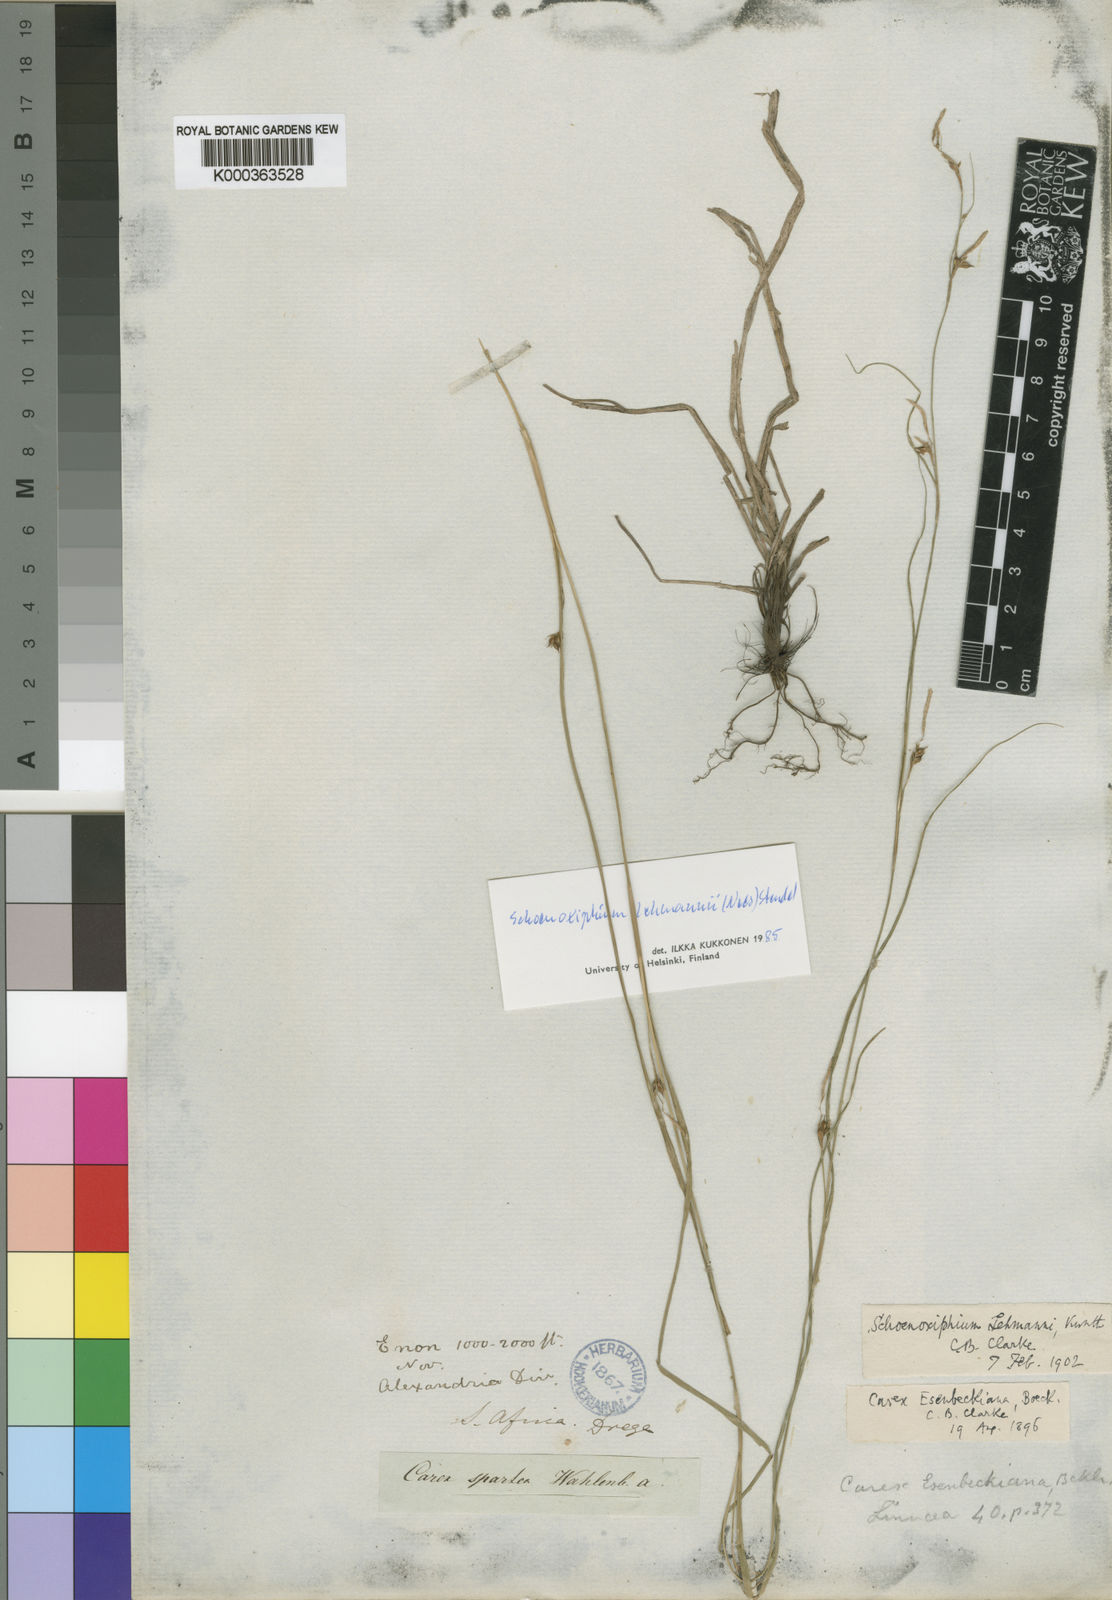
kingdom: Plantae
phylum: Tracheophyta
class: Liliopsida
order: Poales
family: Cyperaceae
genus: Carex
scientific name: Carex uhligii
